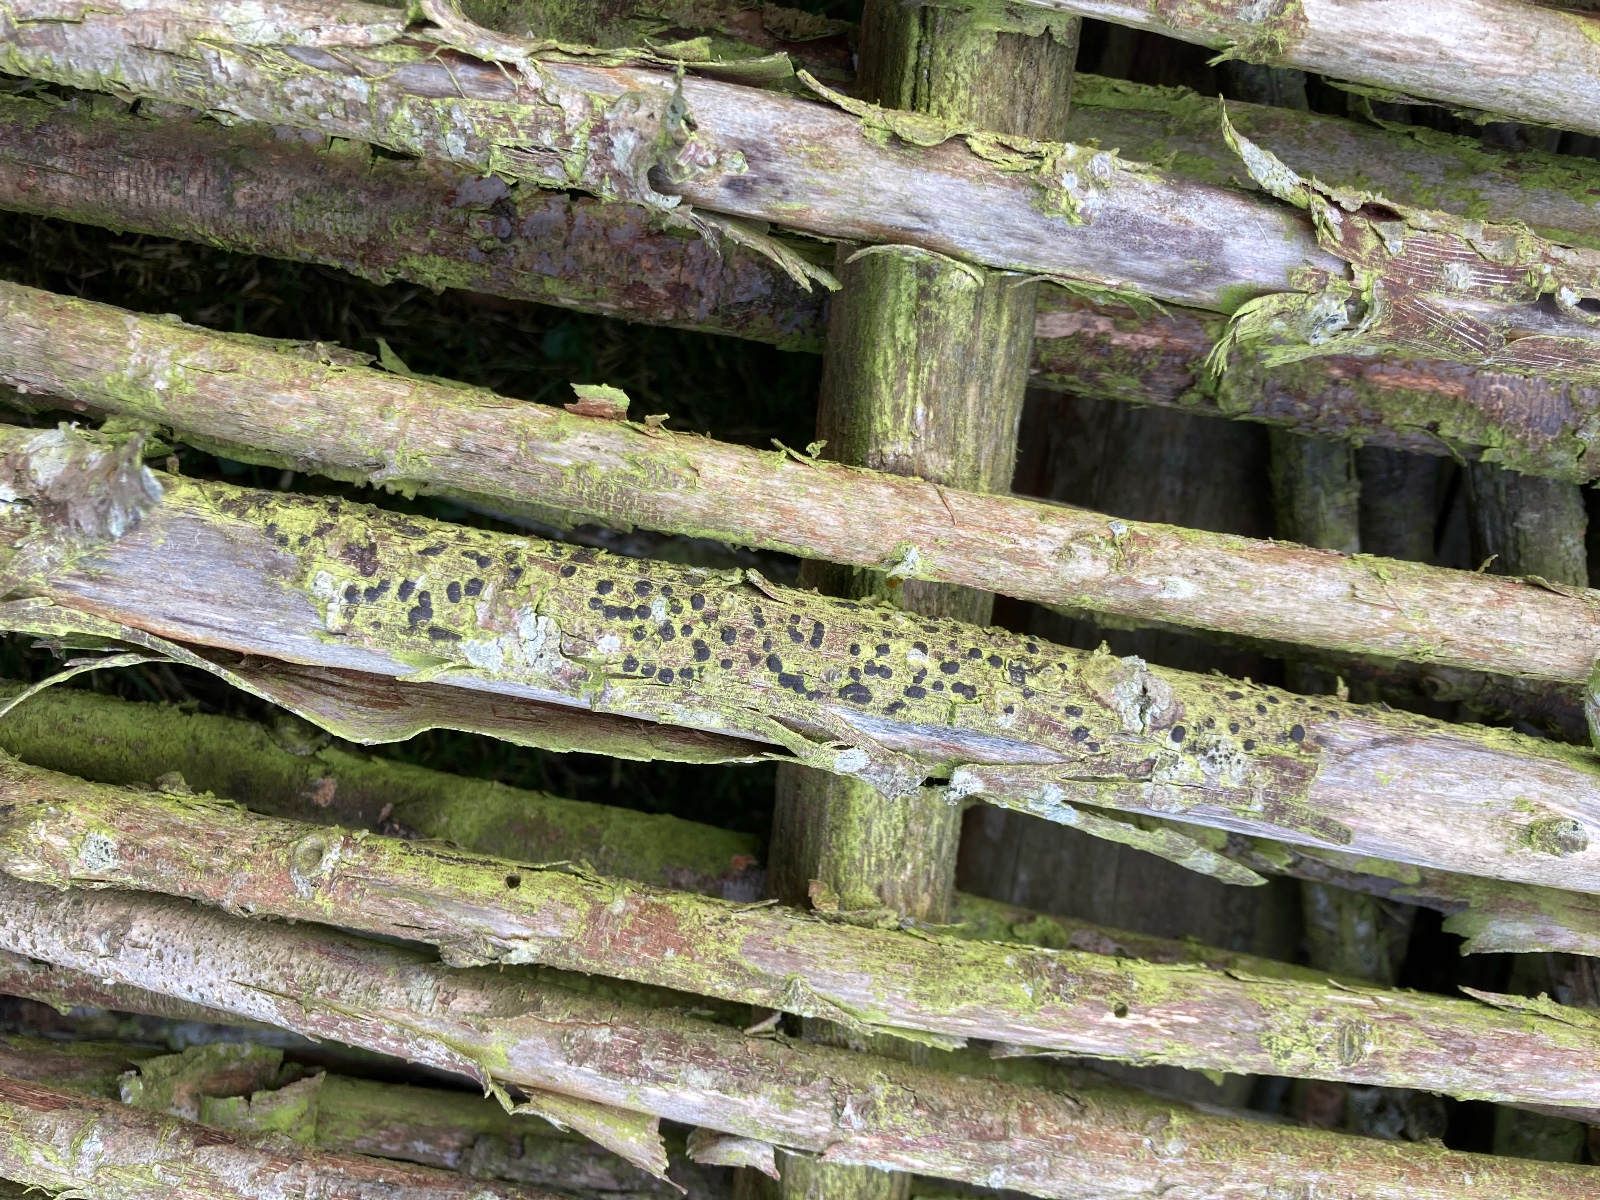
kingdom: Fungi
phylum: Ascomycota
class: Sordariomycetes
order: Xylariales
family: Diatrypaceae
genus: Diatrype
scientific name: Diatrype bullata
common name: pile-kulskorpe
